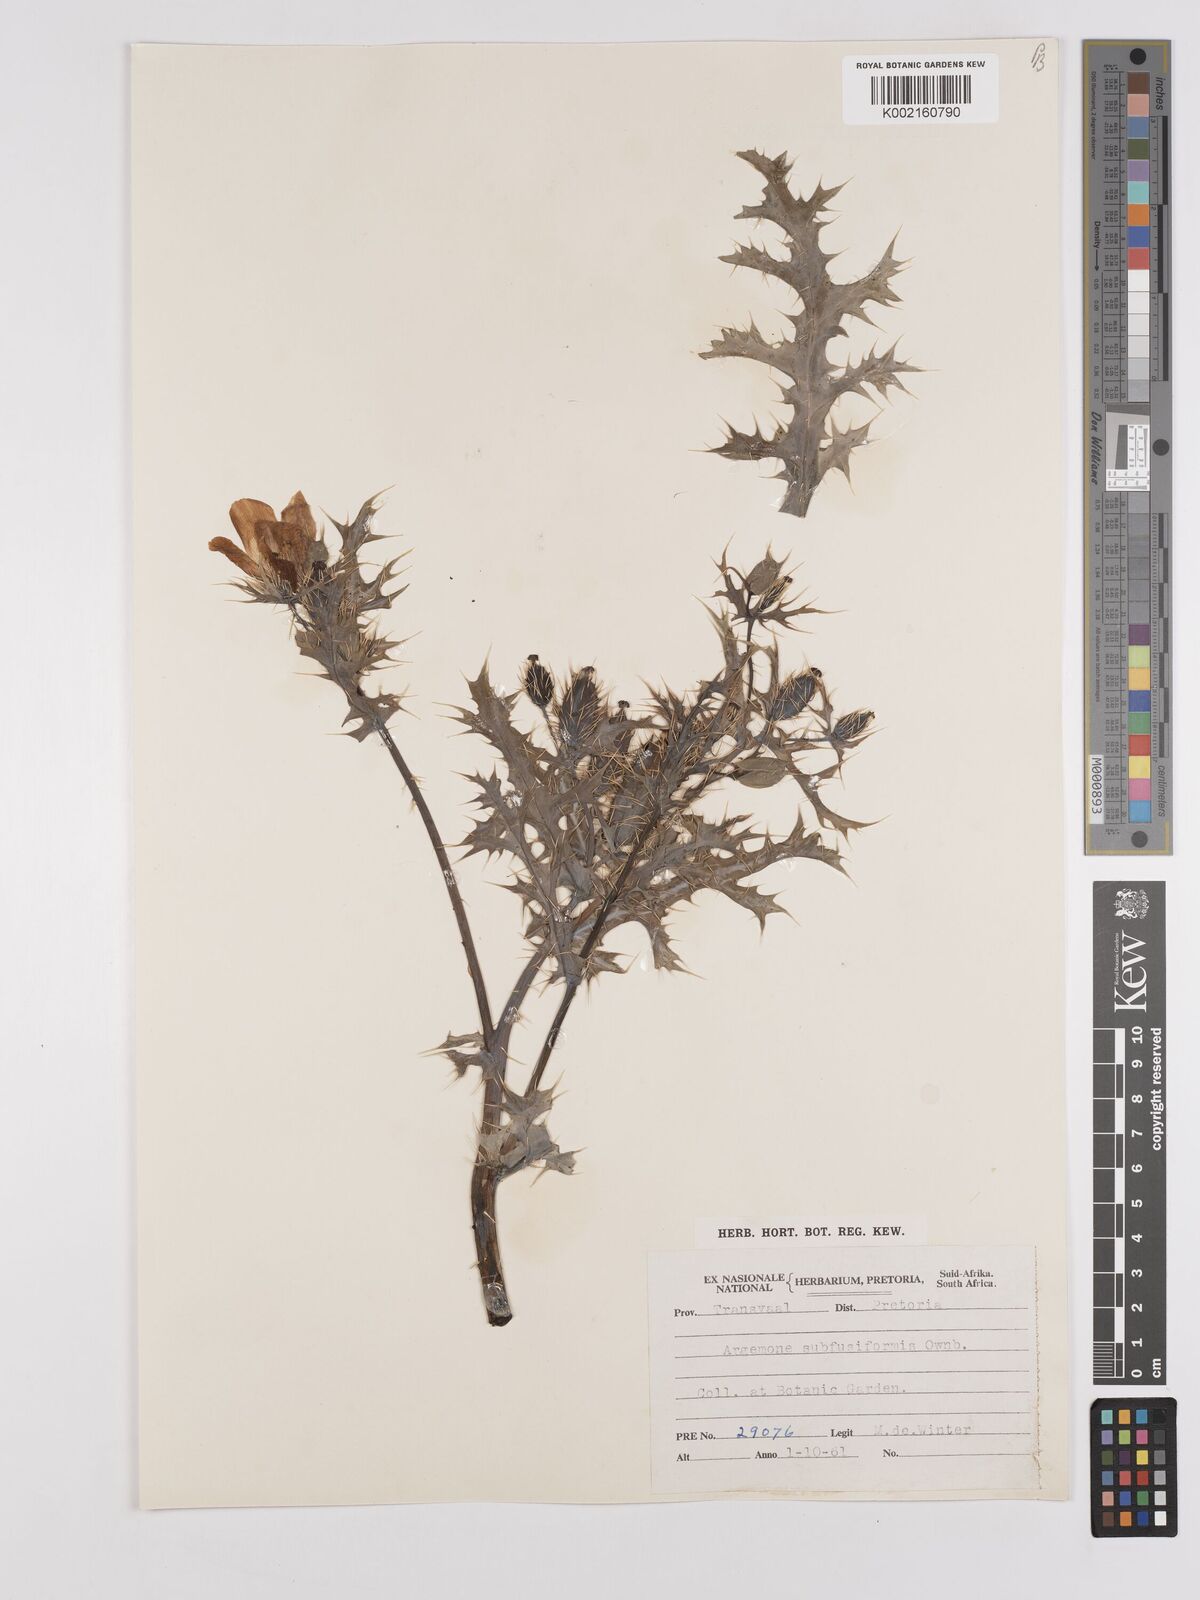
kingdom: Plantae
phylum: Tracheophyta
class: Magnoliopsida
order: Ranunculales
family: Papaveraceae
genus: Argemone
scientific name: Argemone subfusiformis
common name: American-poppy
